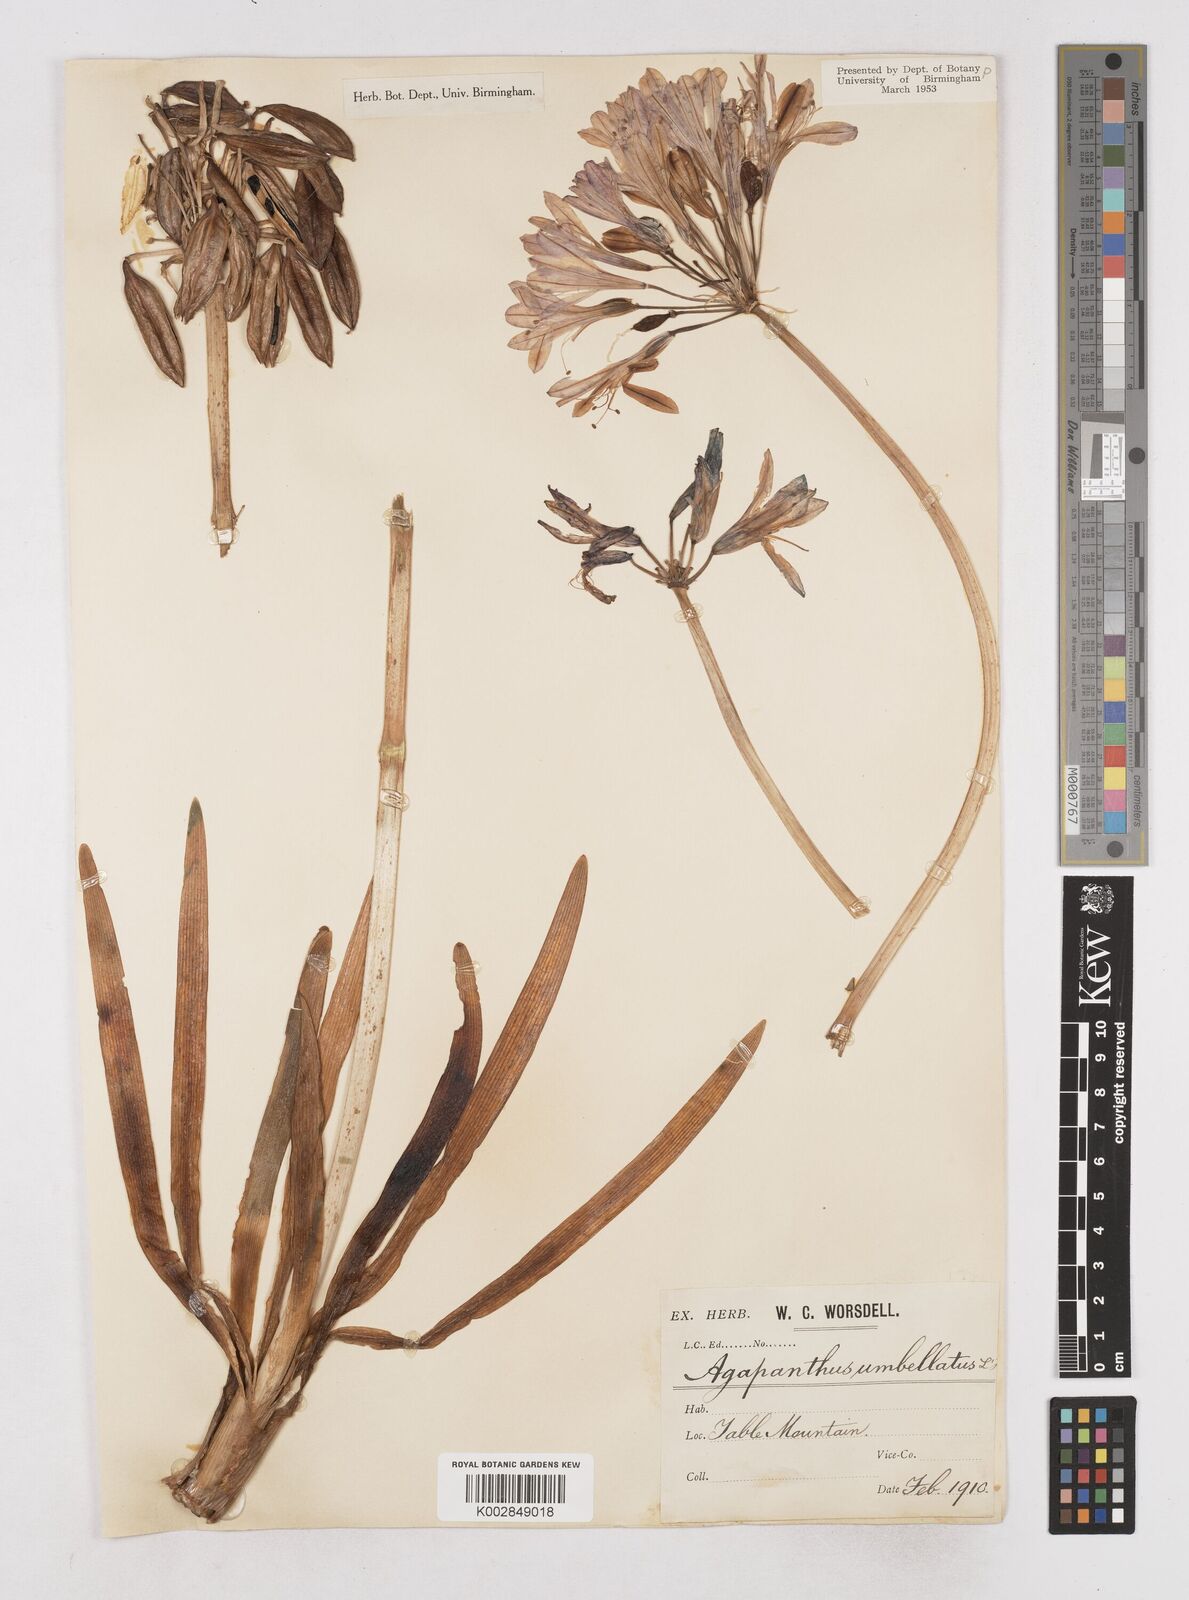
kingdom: Plantae
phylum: Tracheophyta
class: Liliopsida
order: Asparagales
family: Amaryllidaceae
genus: Agapanthus
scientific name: Agapanthus africanus
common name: Lily-of-the-nile
